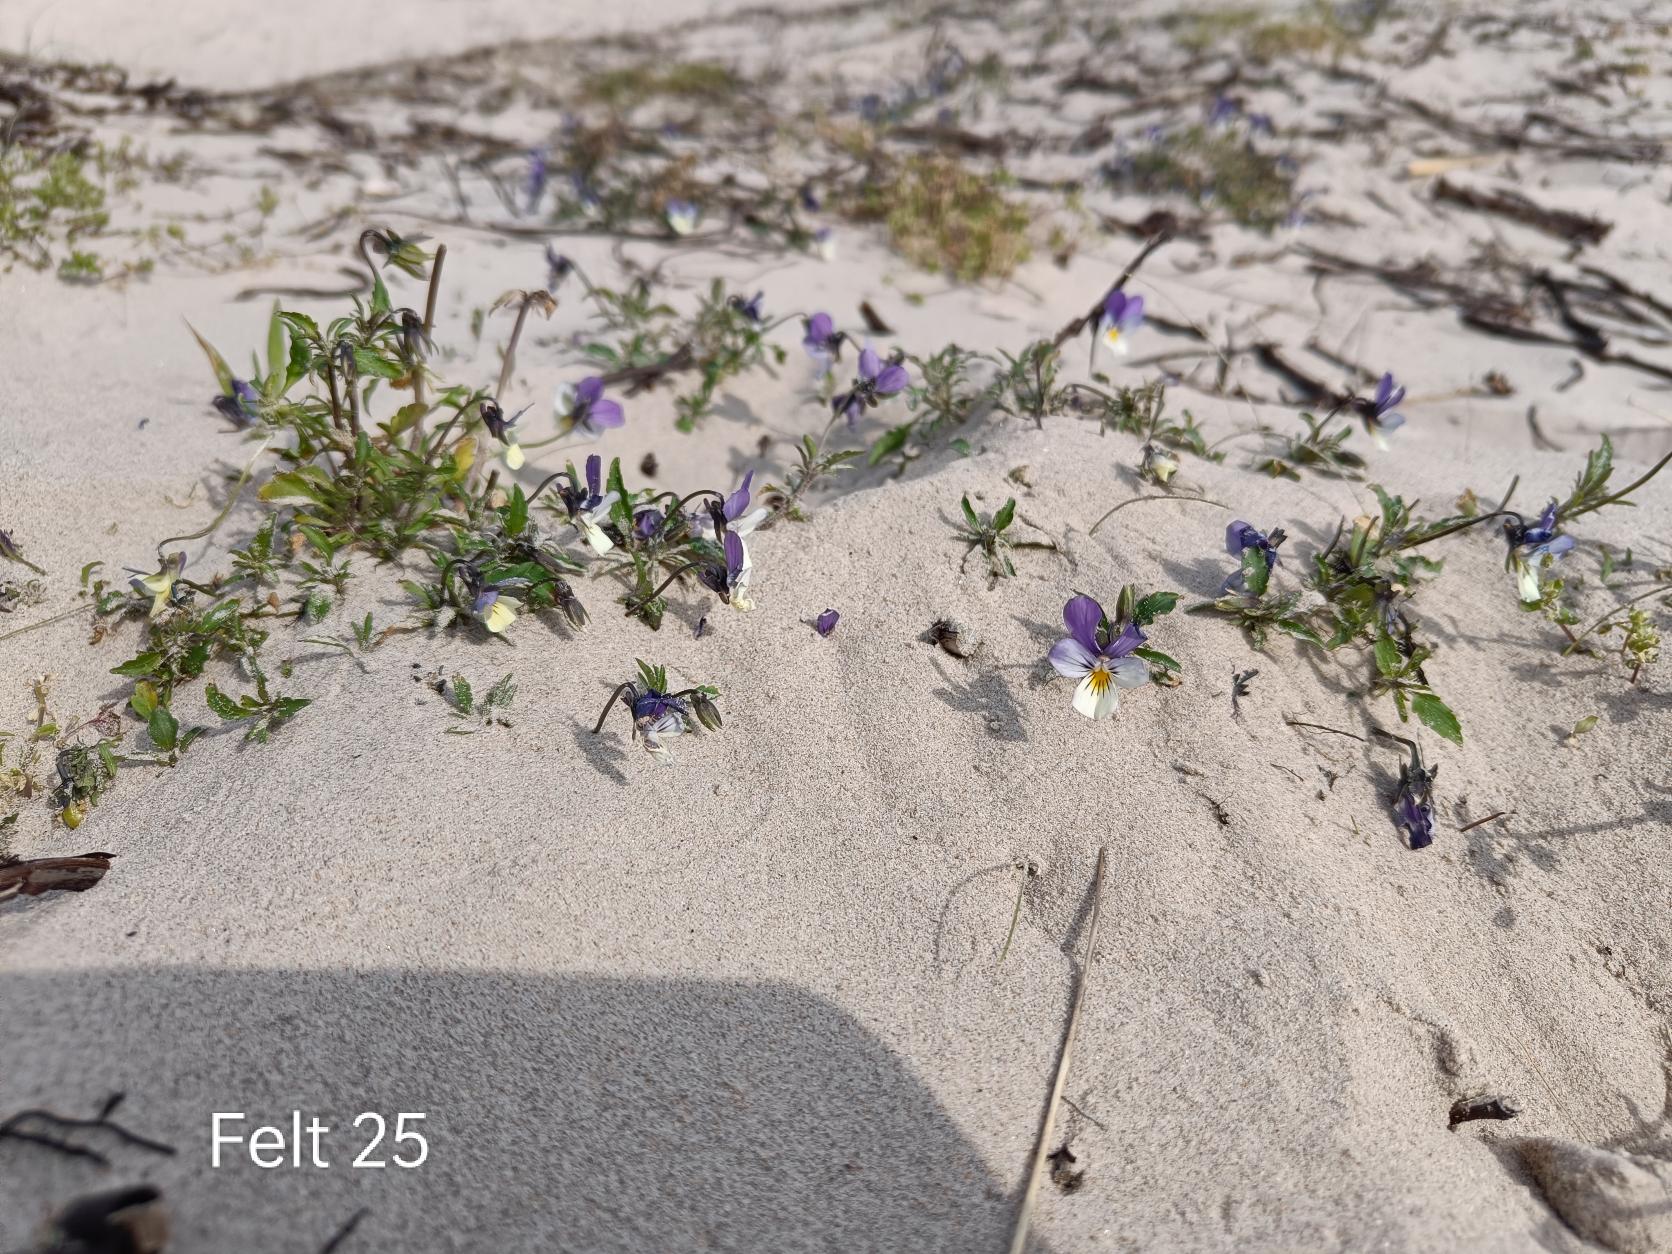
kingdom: Plantae
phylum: Tracheophyta
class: Magnoliopsida
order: Malpighiales
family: Violaceae
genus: Viola
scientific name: Viola tricolor
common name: Stedmoderblomst
